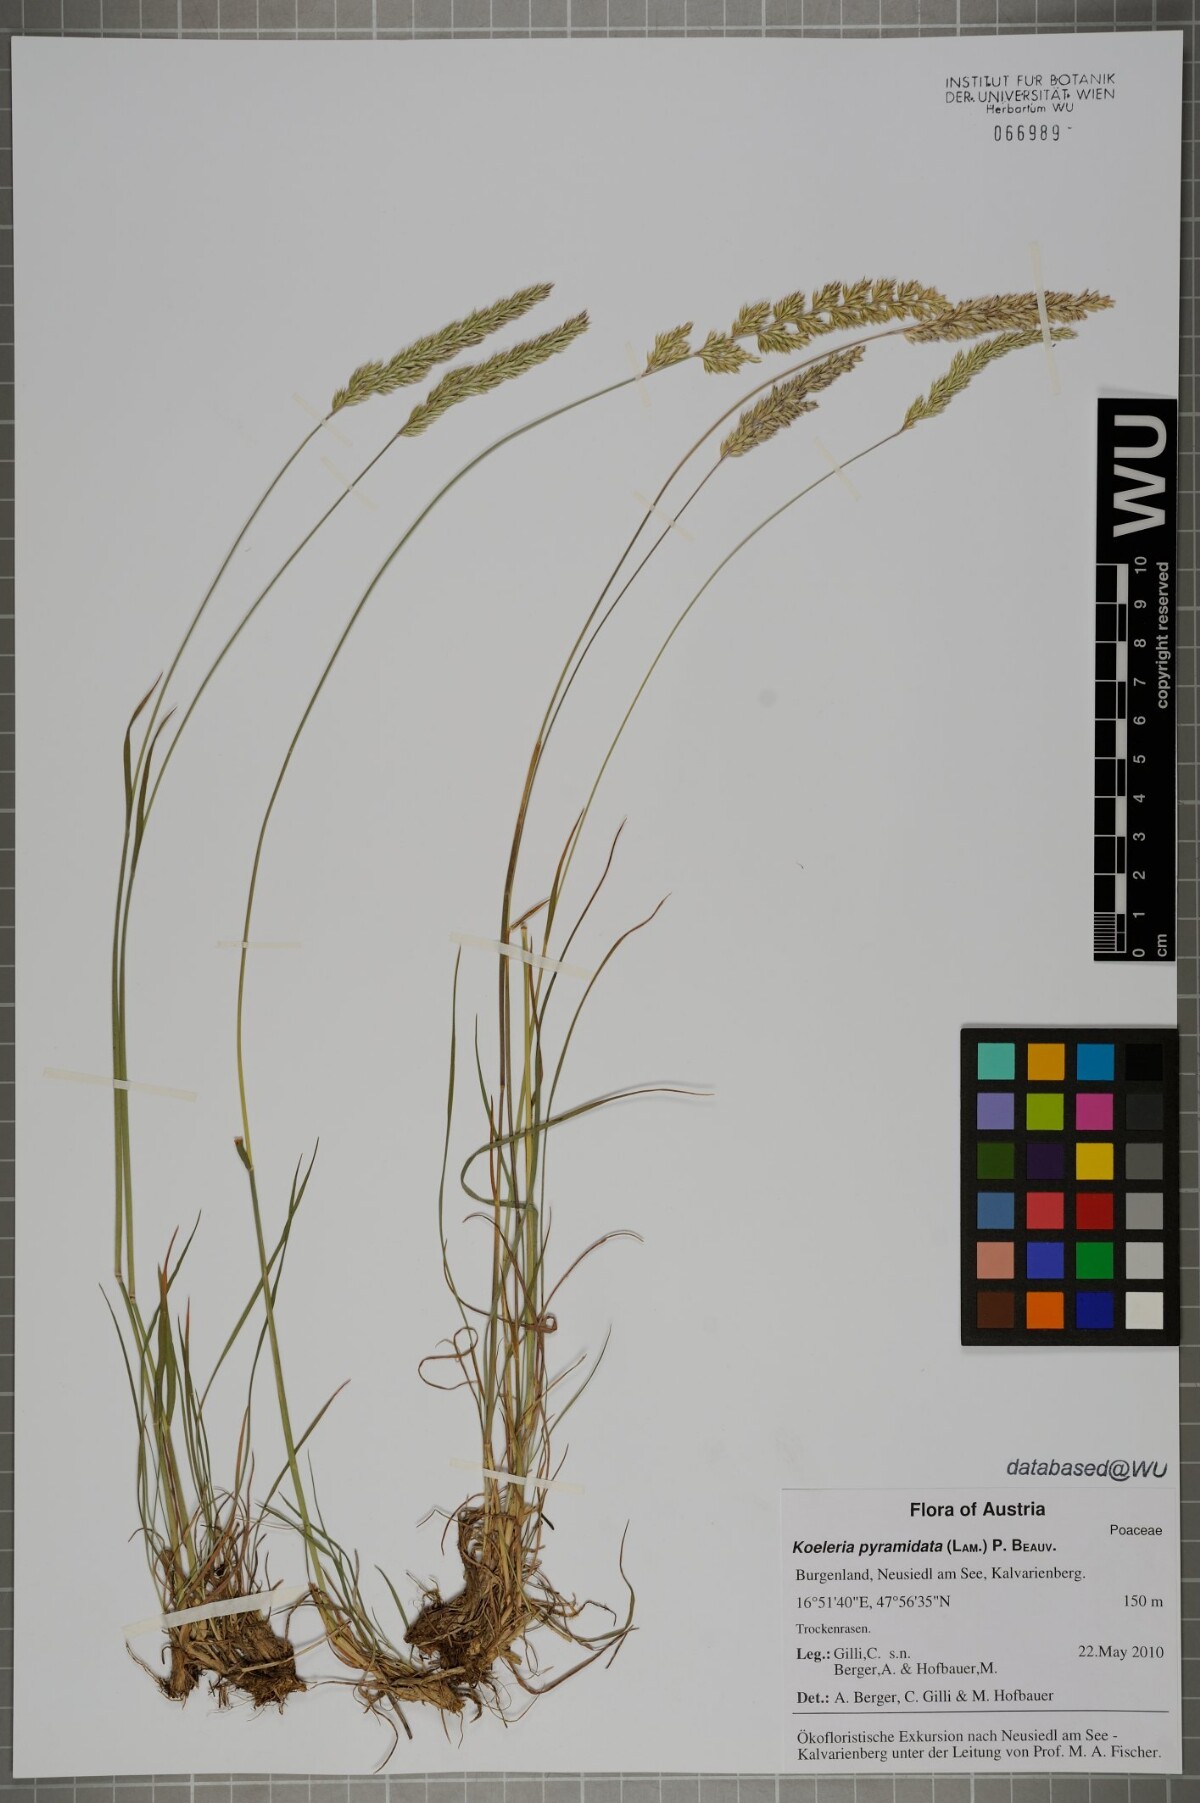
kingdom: Plantae
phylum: Tracheophyta
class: Liliopsida
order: Poales
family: Poaceae
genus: Koeleria
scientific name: Koeleria pyramidata
